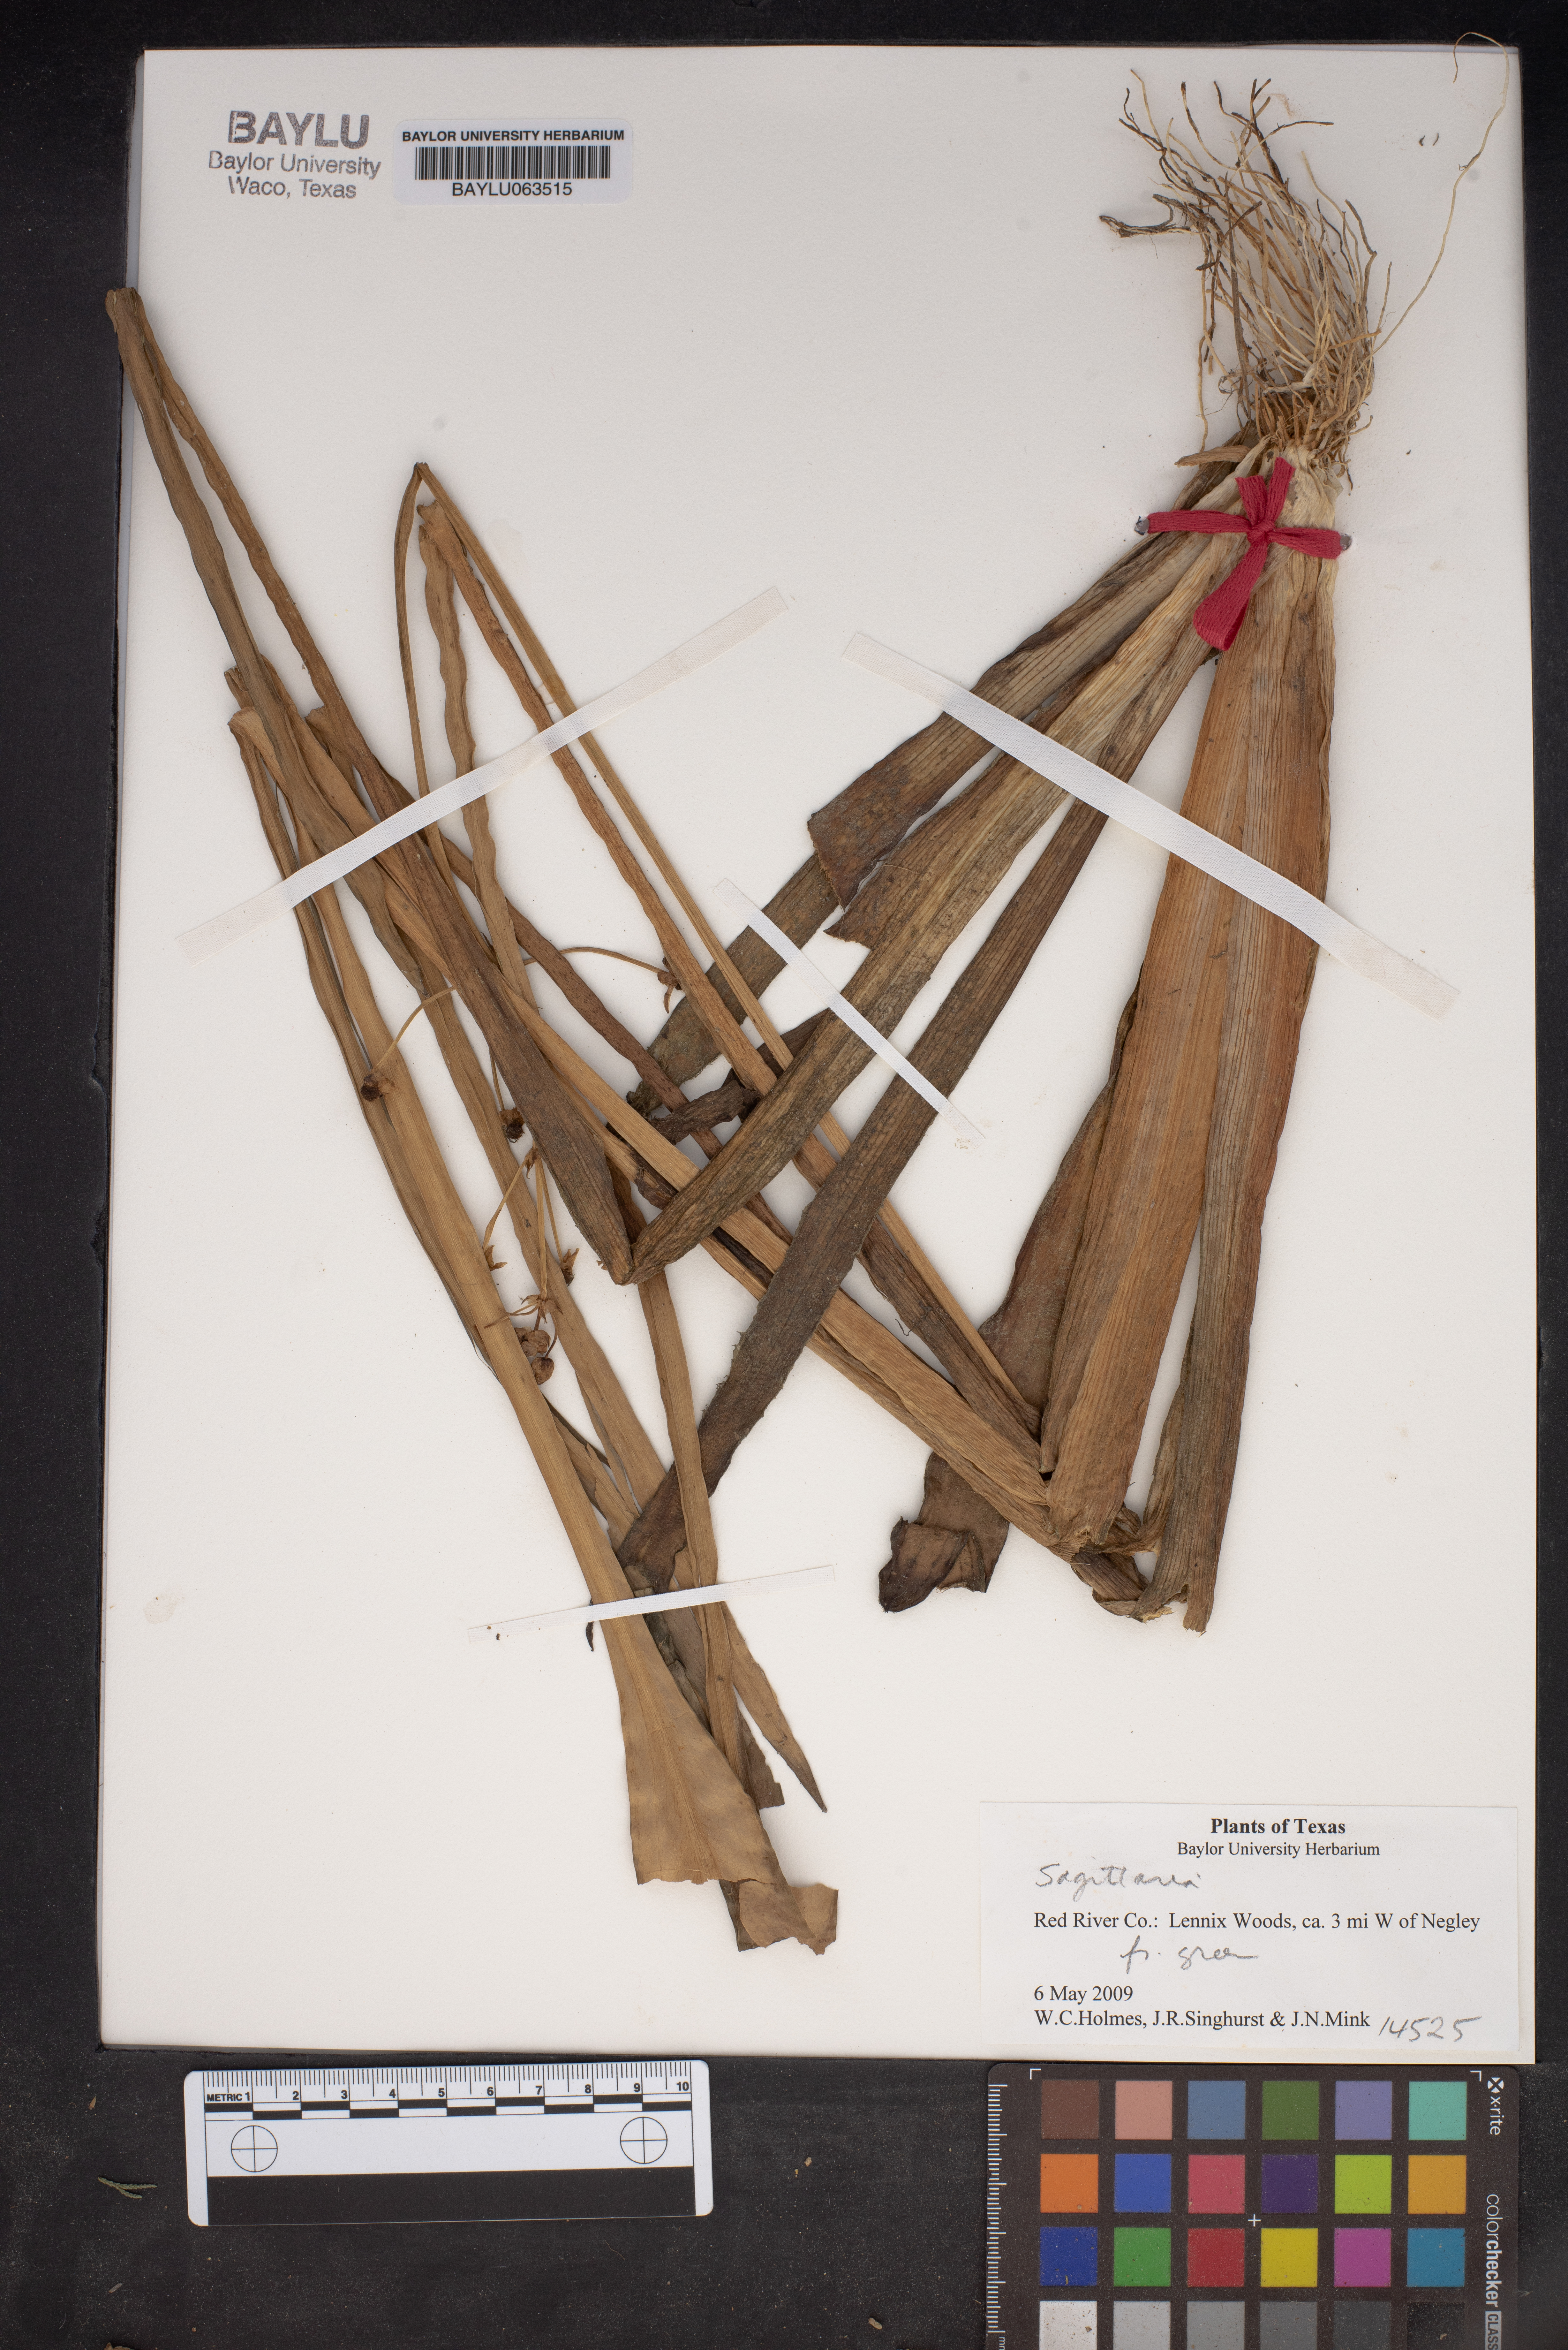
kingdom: Plantae
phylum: Tracheophyta
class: Liliopsida
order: Alismatales
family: Alismataceae
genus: Sagittaria
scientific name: Sagittaria
